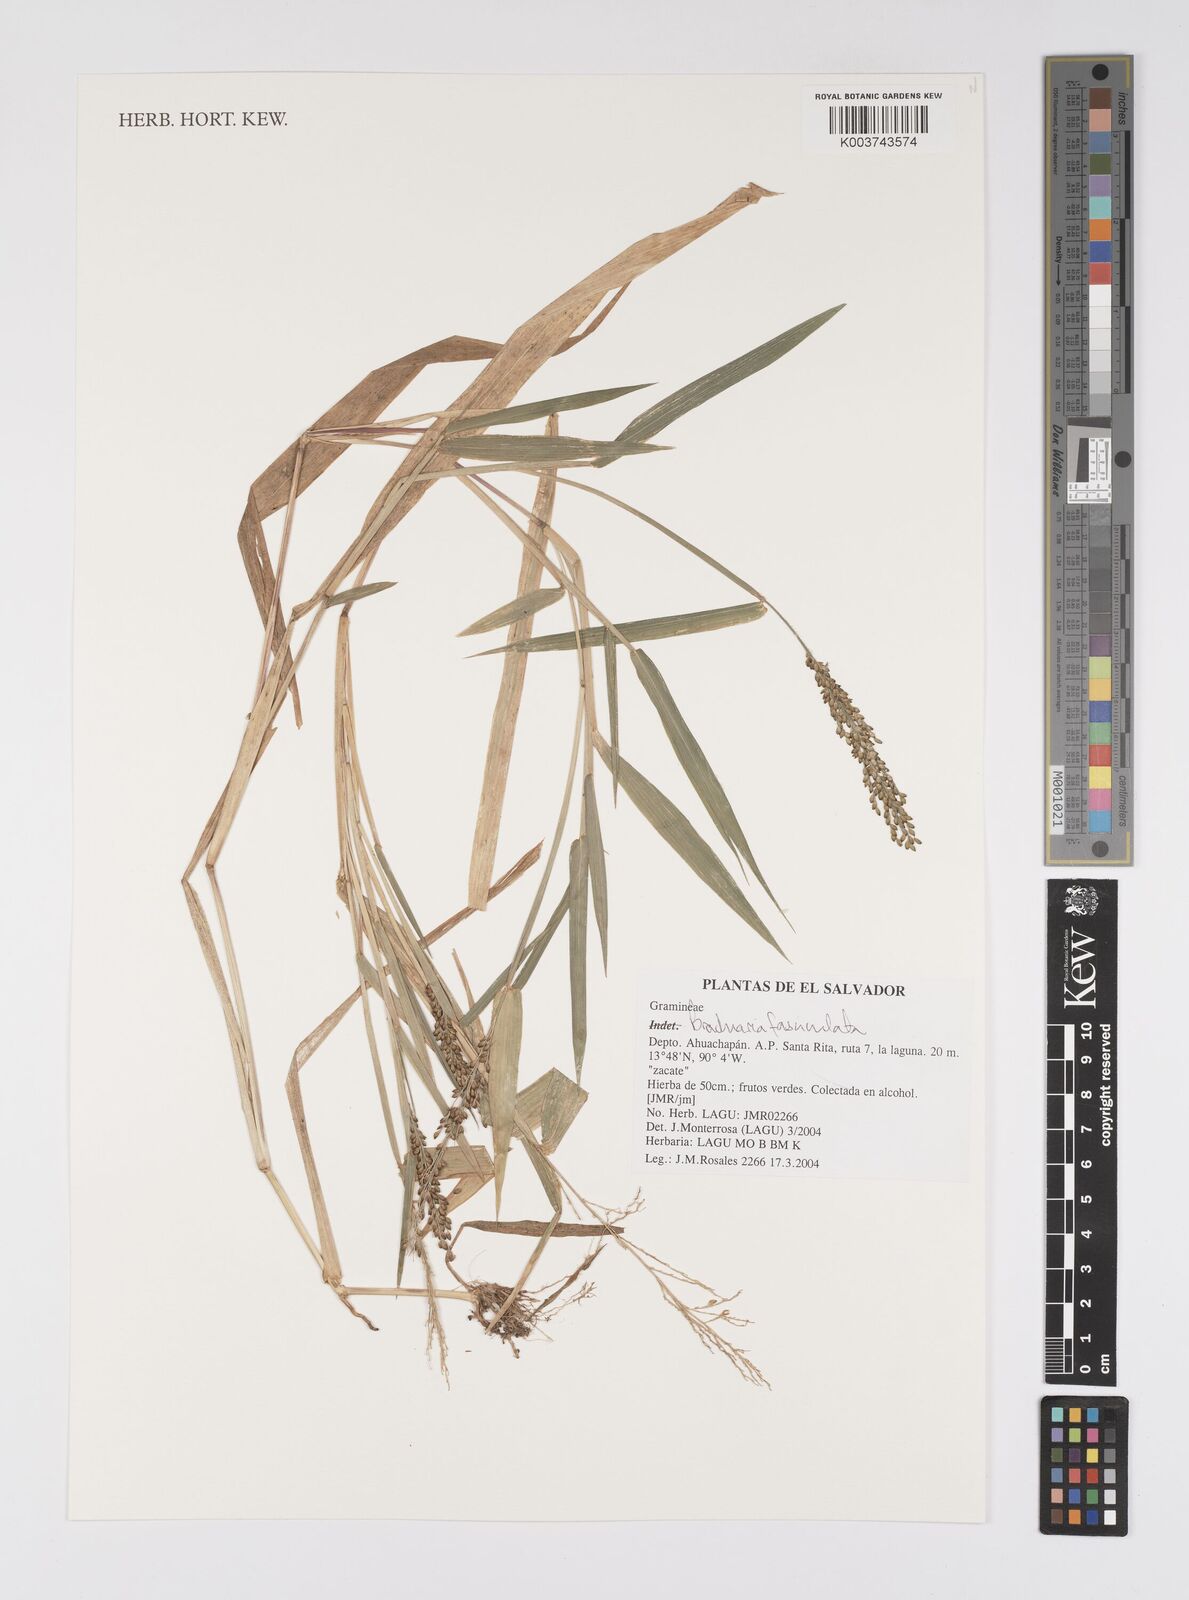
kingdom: Plantae
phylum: Tracheophyta
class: Liliopsida
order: Poales
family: Poaceae
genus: Urochloa
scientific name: Urochloa fusca
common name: Browntop signal grass
